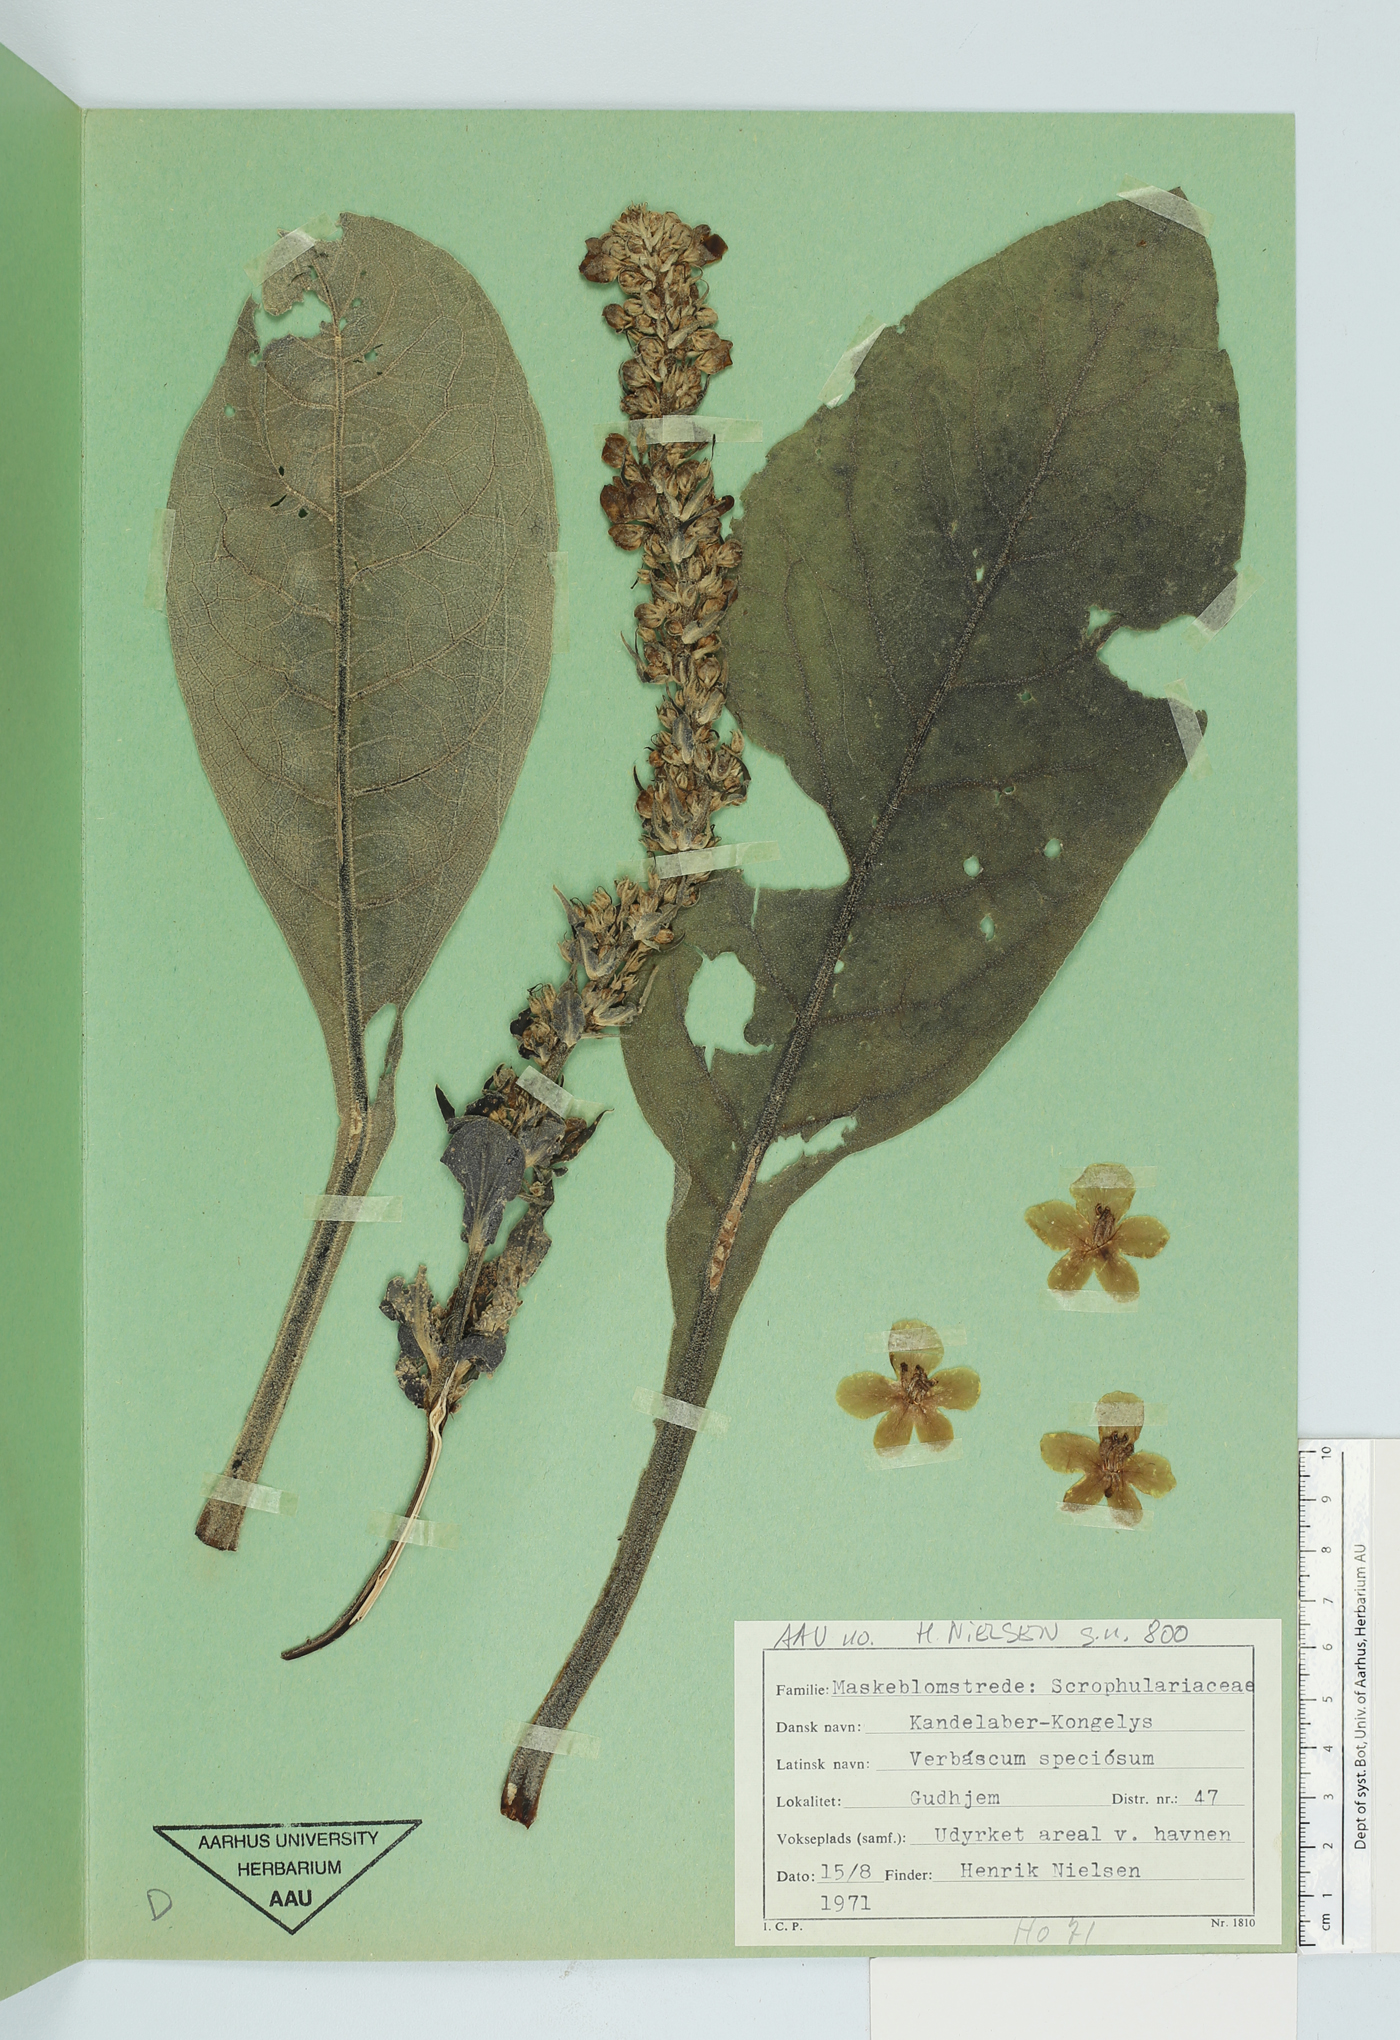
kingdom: Plantae
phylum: Tracheophyta
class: Magnoliopsida
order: Lamiales
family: Scrophulariaceae
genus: Verbascum
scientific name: Verbascum speciosum
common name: Hungarian mullein
